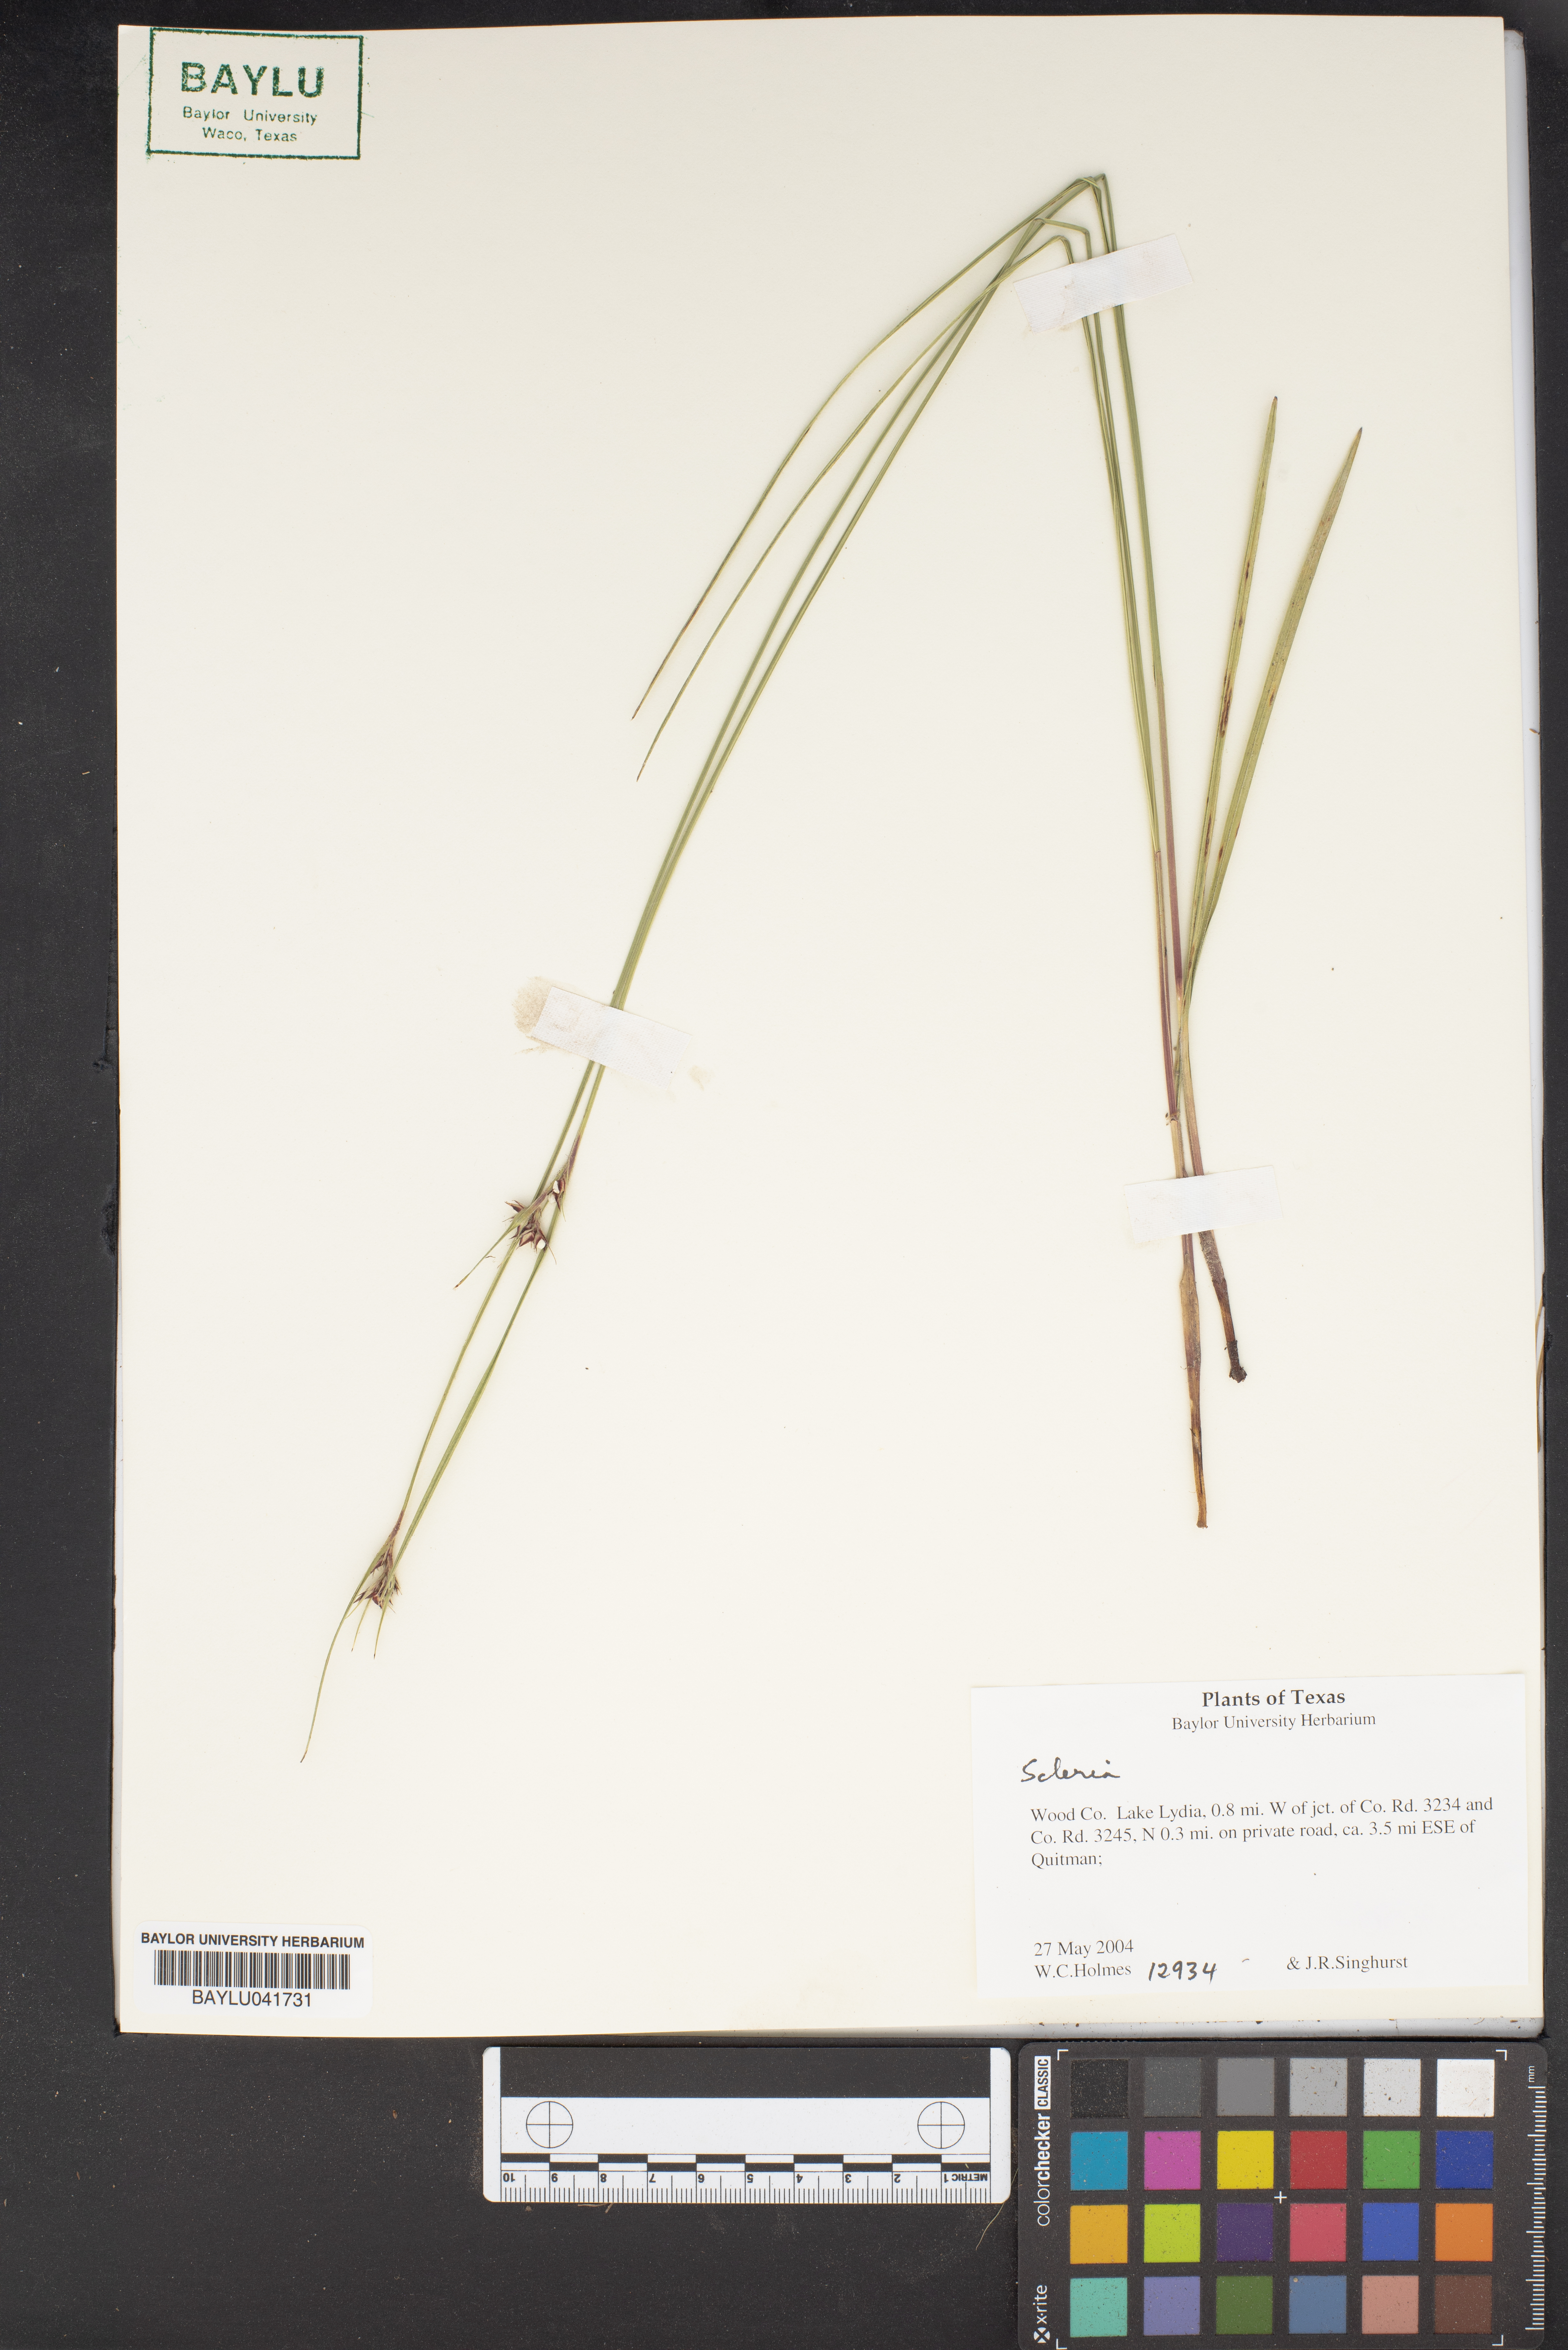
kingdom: Plantae
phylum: Tracheophyta
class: Liliopsida
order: Poales
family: Cyperaceae
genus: Scleria
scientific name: Scleria
